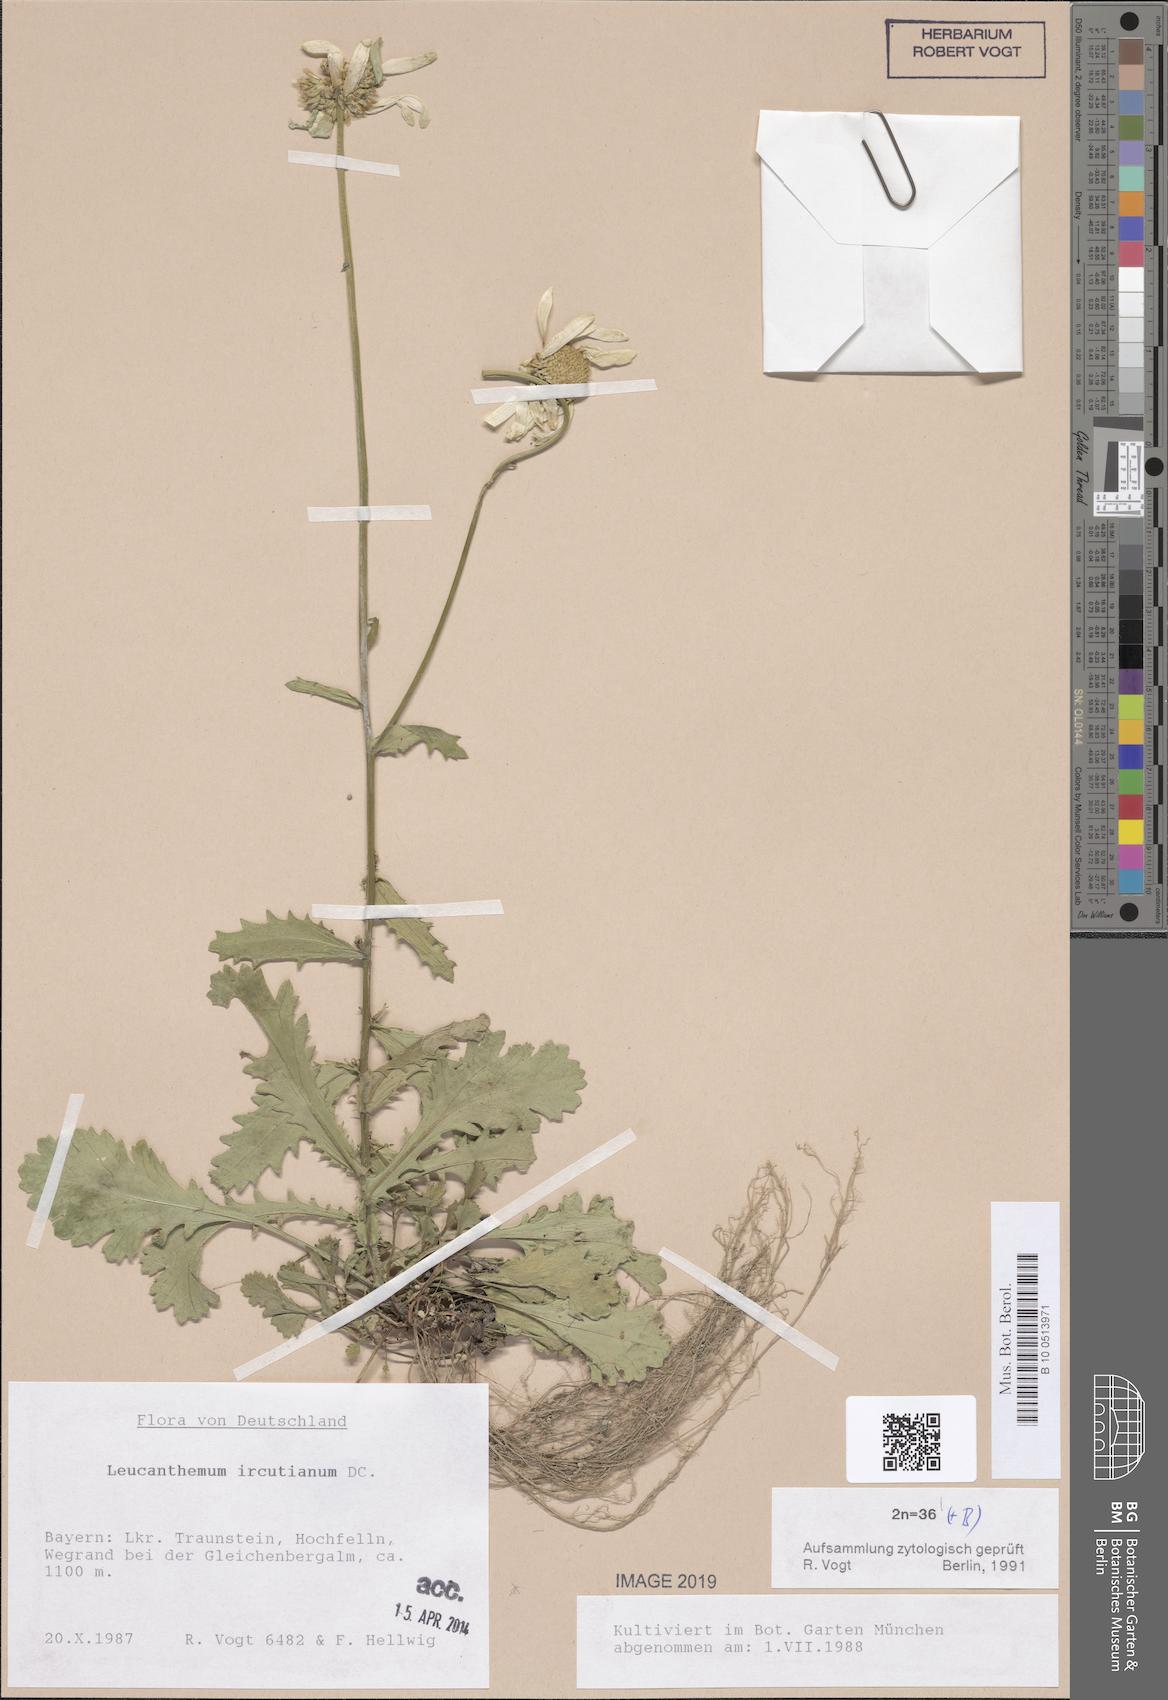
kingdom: Plantae
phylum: Tracheophyta
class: Magnoliopsida
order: Asterales
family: Asteraceae
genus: Leucanthemum
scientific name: Leucanthemum ircutianum
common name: Daisy
